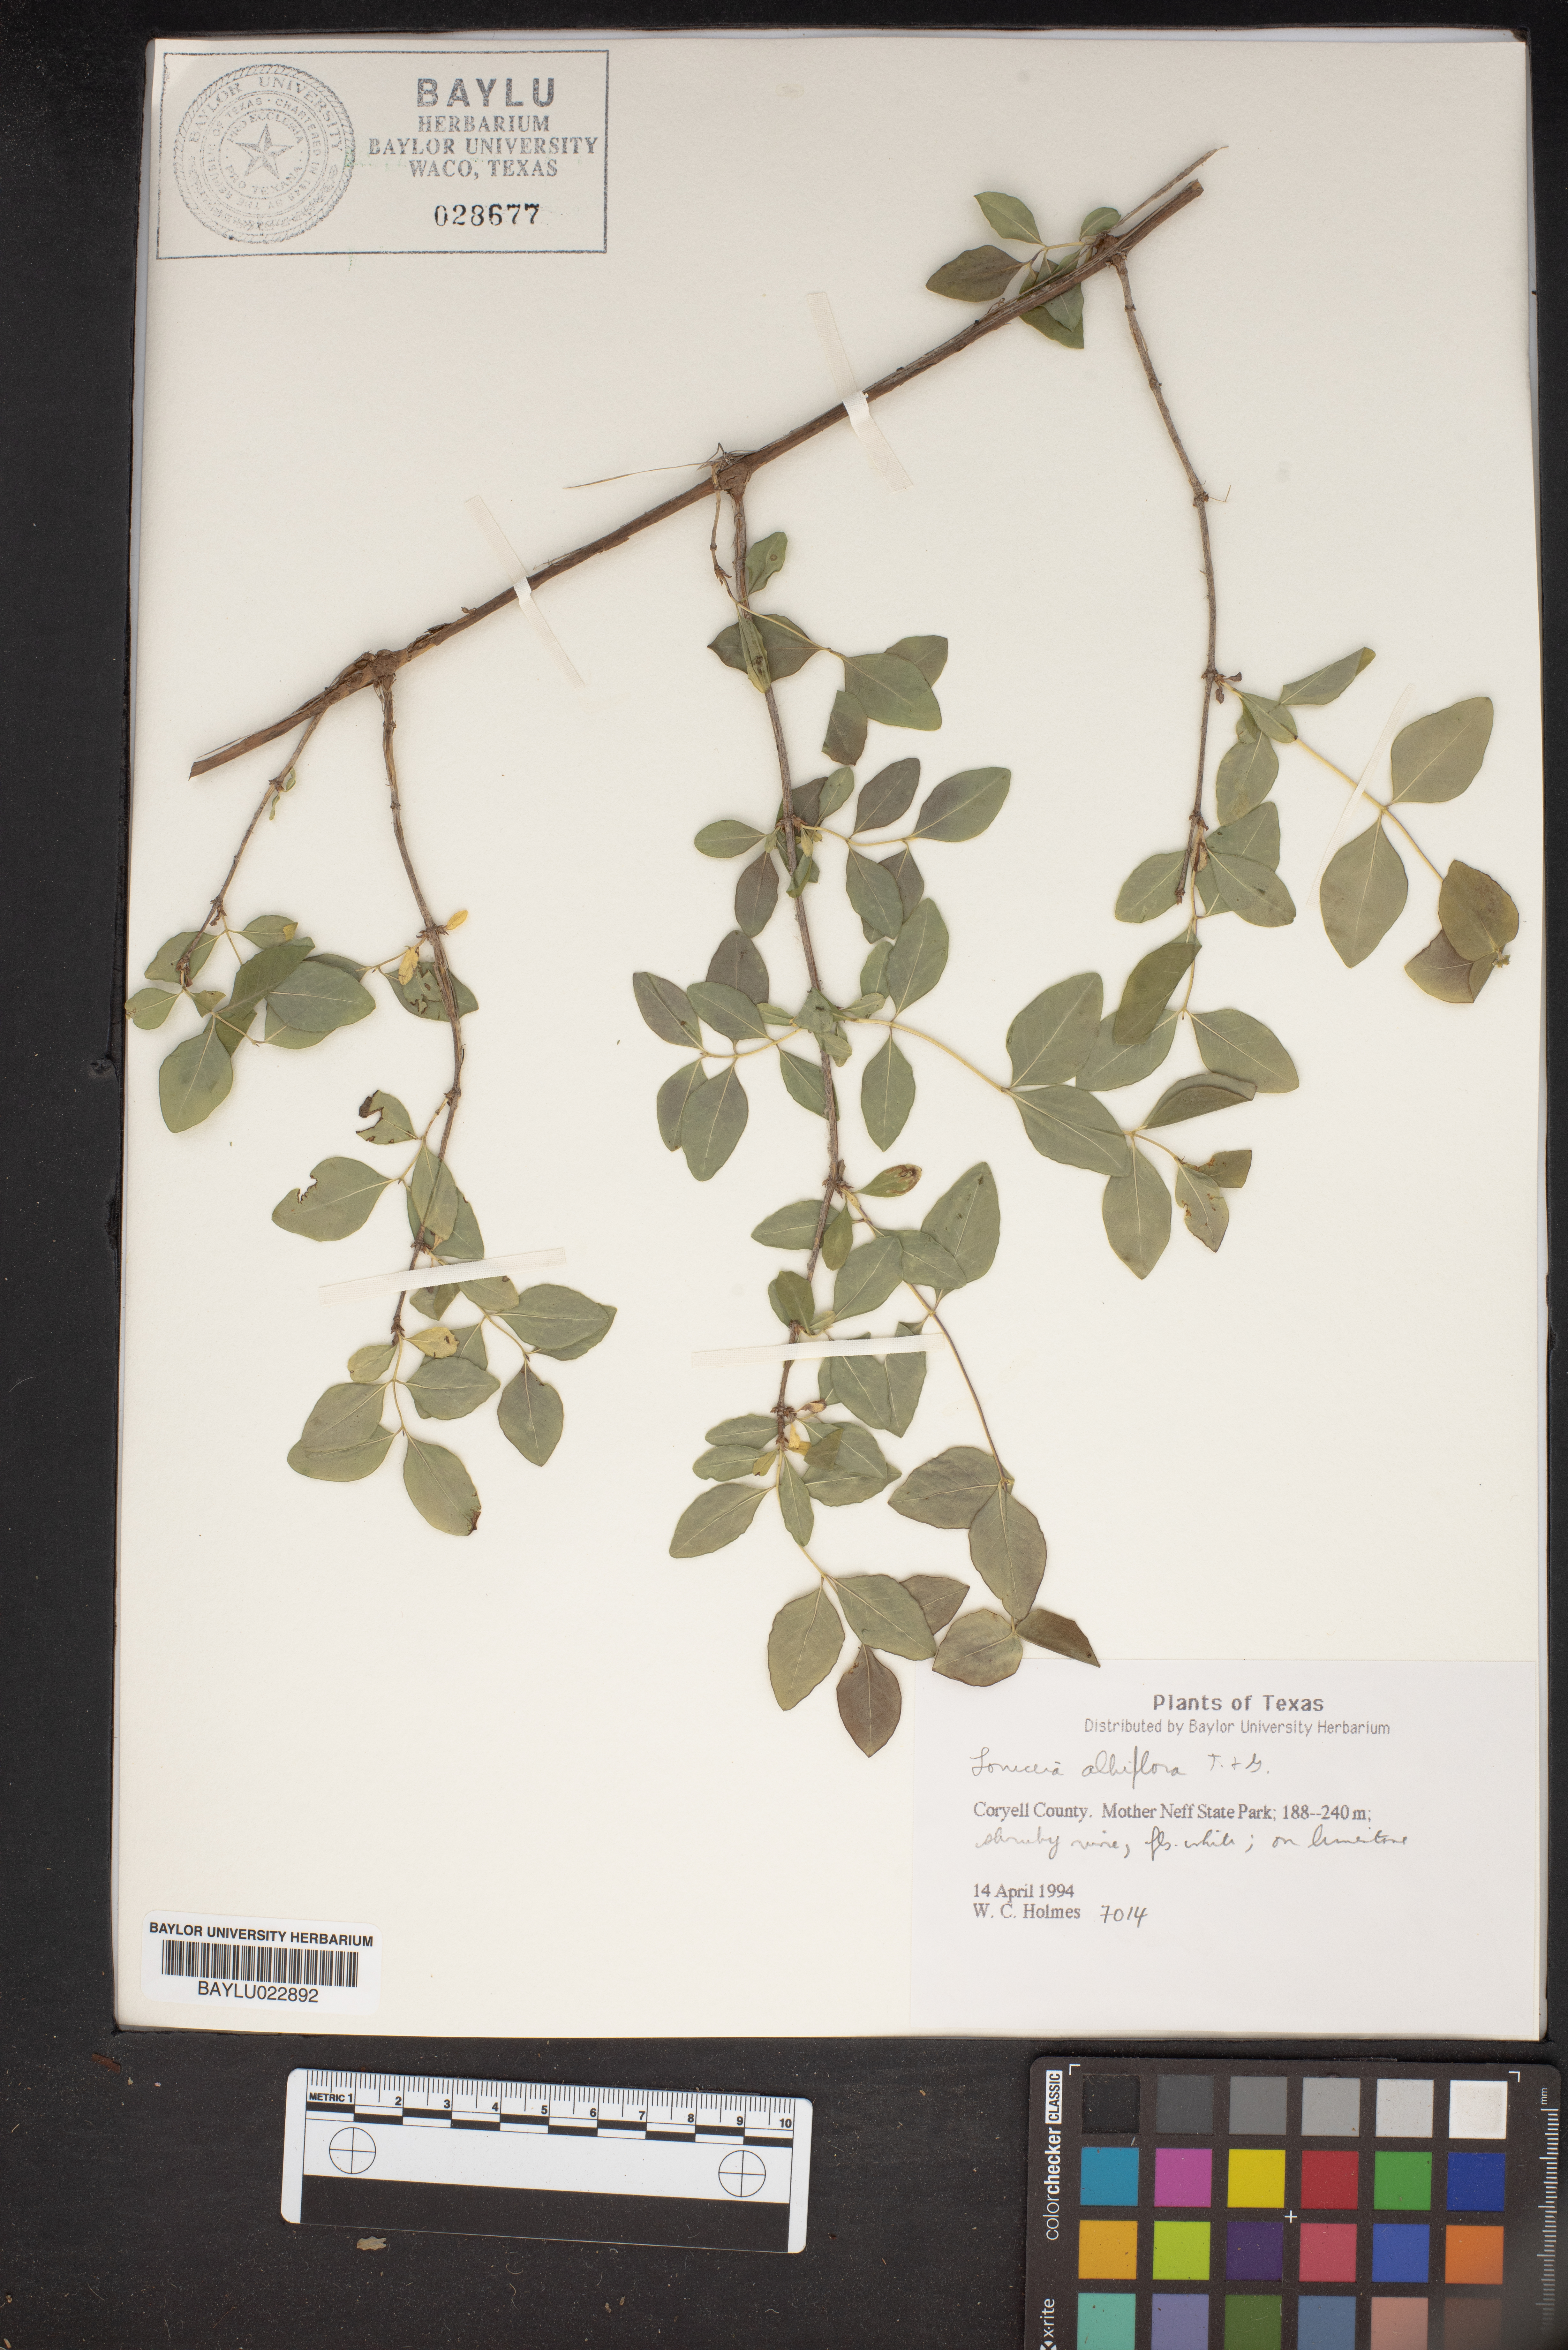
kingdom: Plantae
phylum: Tracheophyta
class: Magnoliopsida
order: Dipsacales
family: Caprifoliaceae
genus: Lonicera
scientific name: Lonicera albiflora
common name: White honeysuckle
